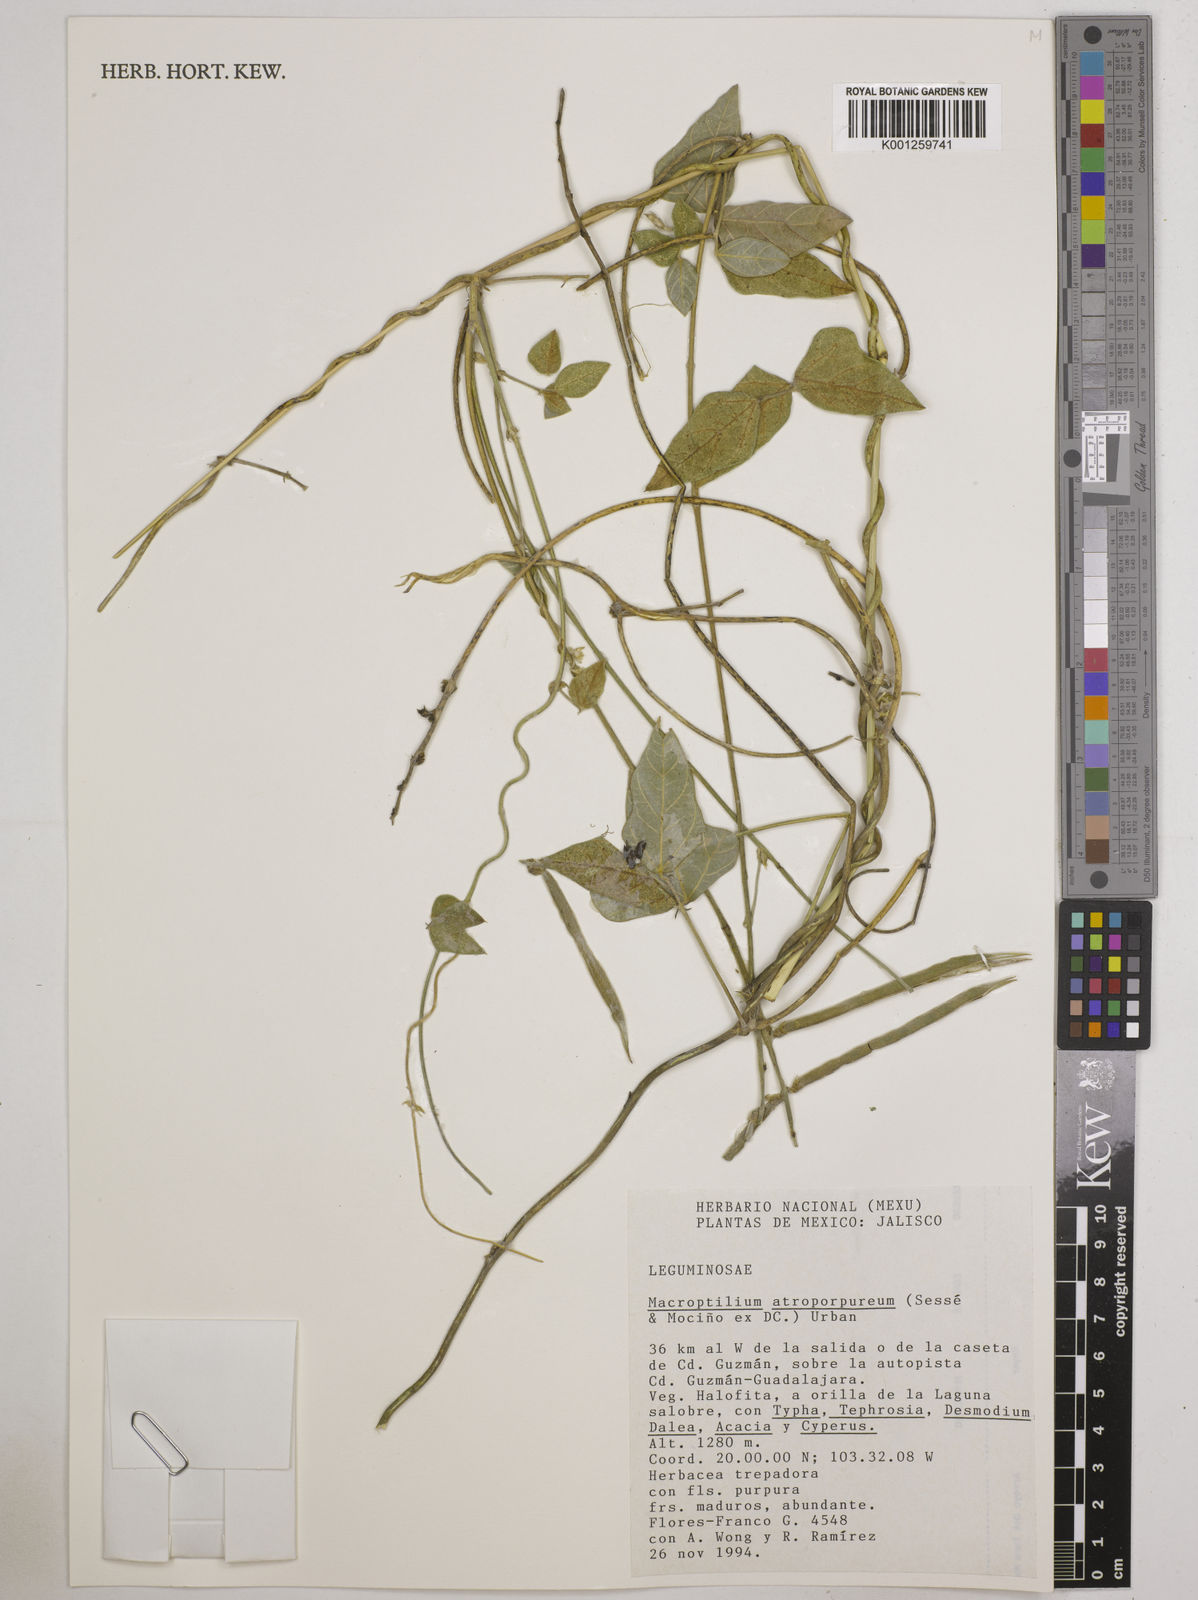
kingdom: Plantae
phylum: Tracheophyta
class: Magnoliopsida
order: Fabales
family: Fabaceae
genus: Macroptilium
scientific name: Macroptilium atropurpureum
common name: Purple bushbean
